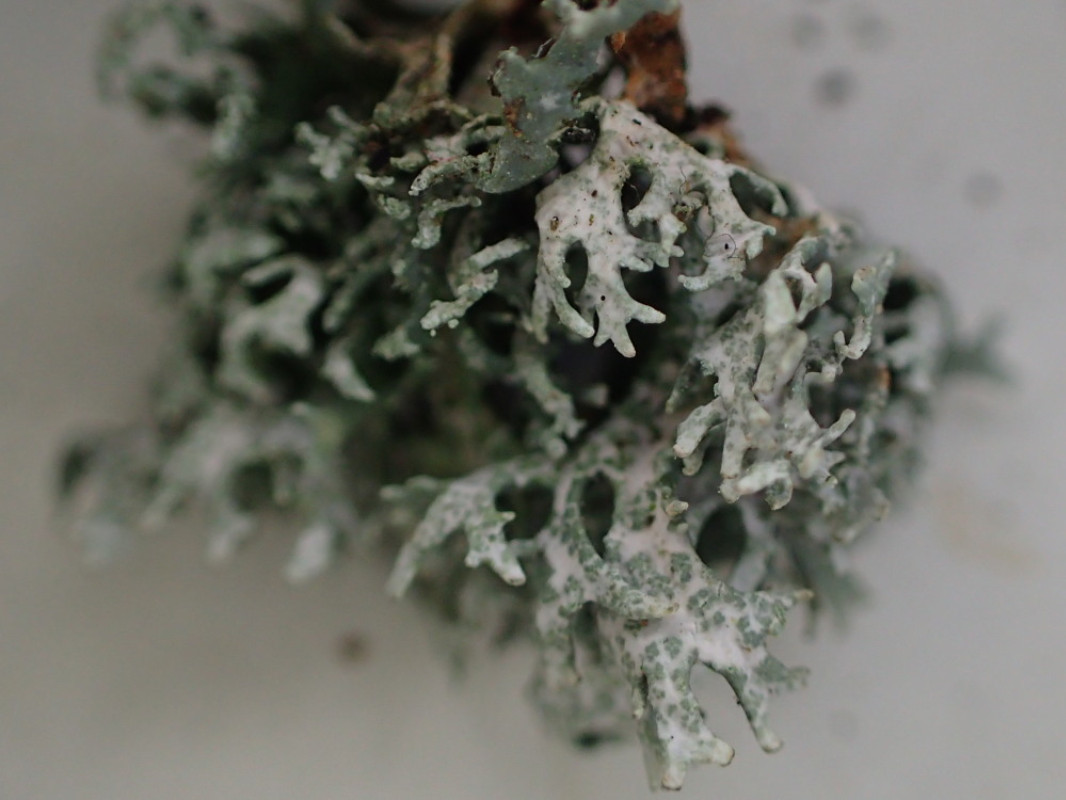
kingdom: Fungi
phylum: Ascomycota
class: Lecanoromycetes
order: Lecanorales
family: Parmeliaceae
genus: Evernia
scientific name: Evernia prunastri
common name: almindelig slåenlav
